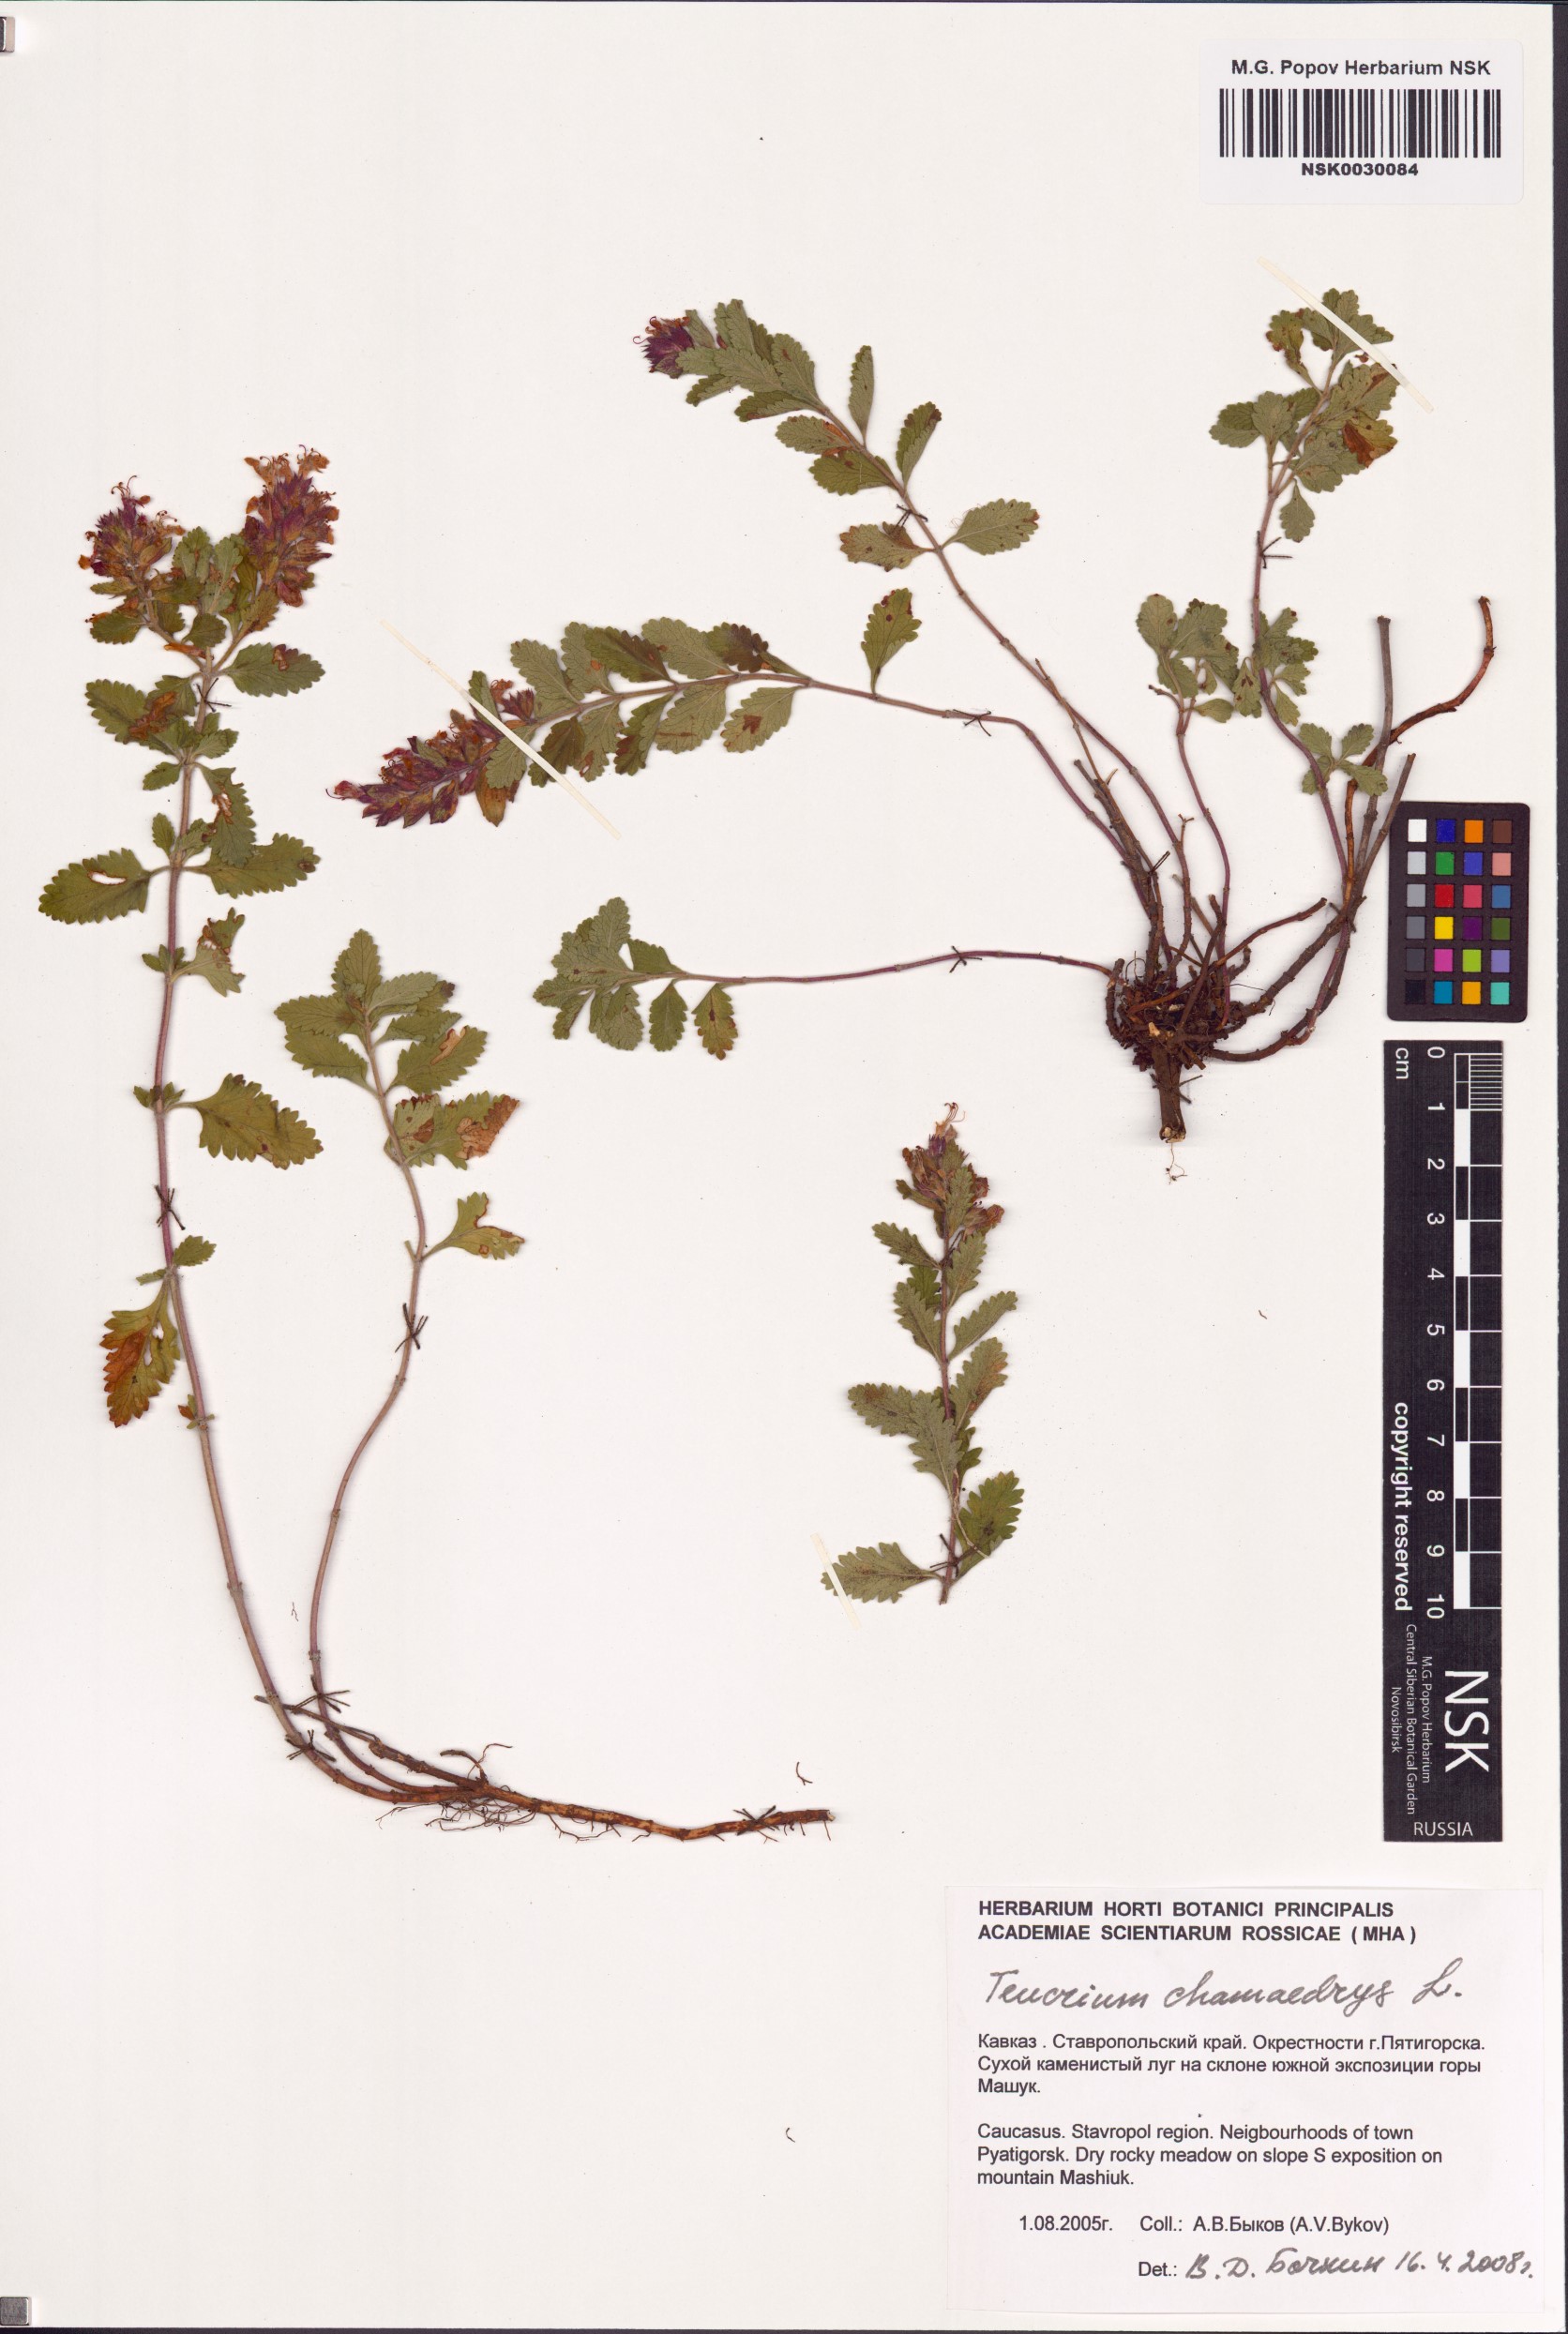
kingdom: Plantae
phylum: Tracheophyta
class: Magnoliopsida
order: Lamiales
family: Lamiaceae
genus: Teucrium
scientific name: Teucrium chamaedrys
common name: Wall germander
